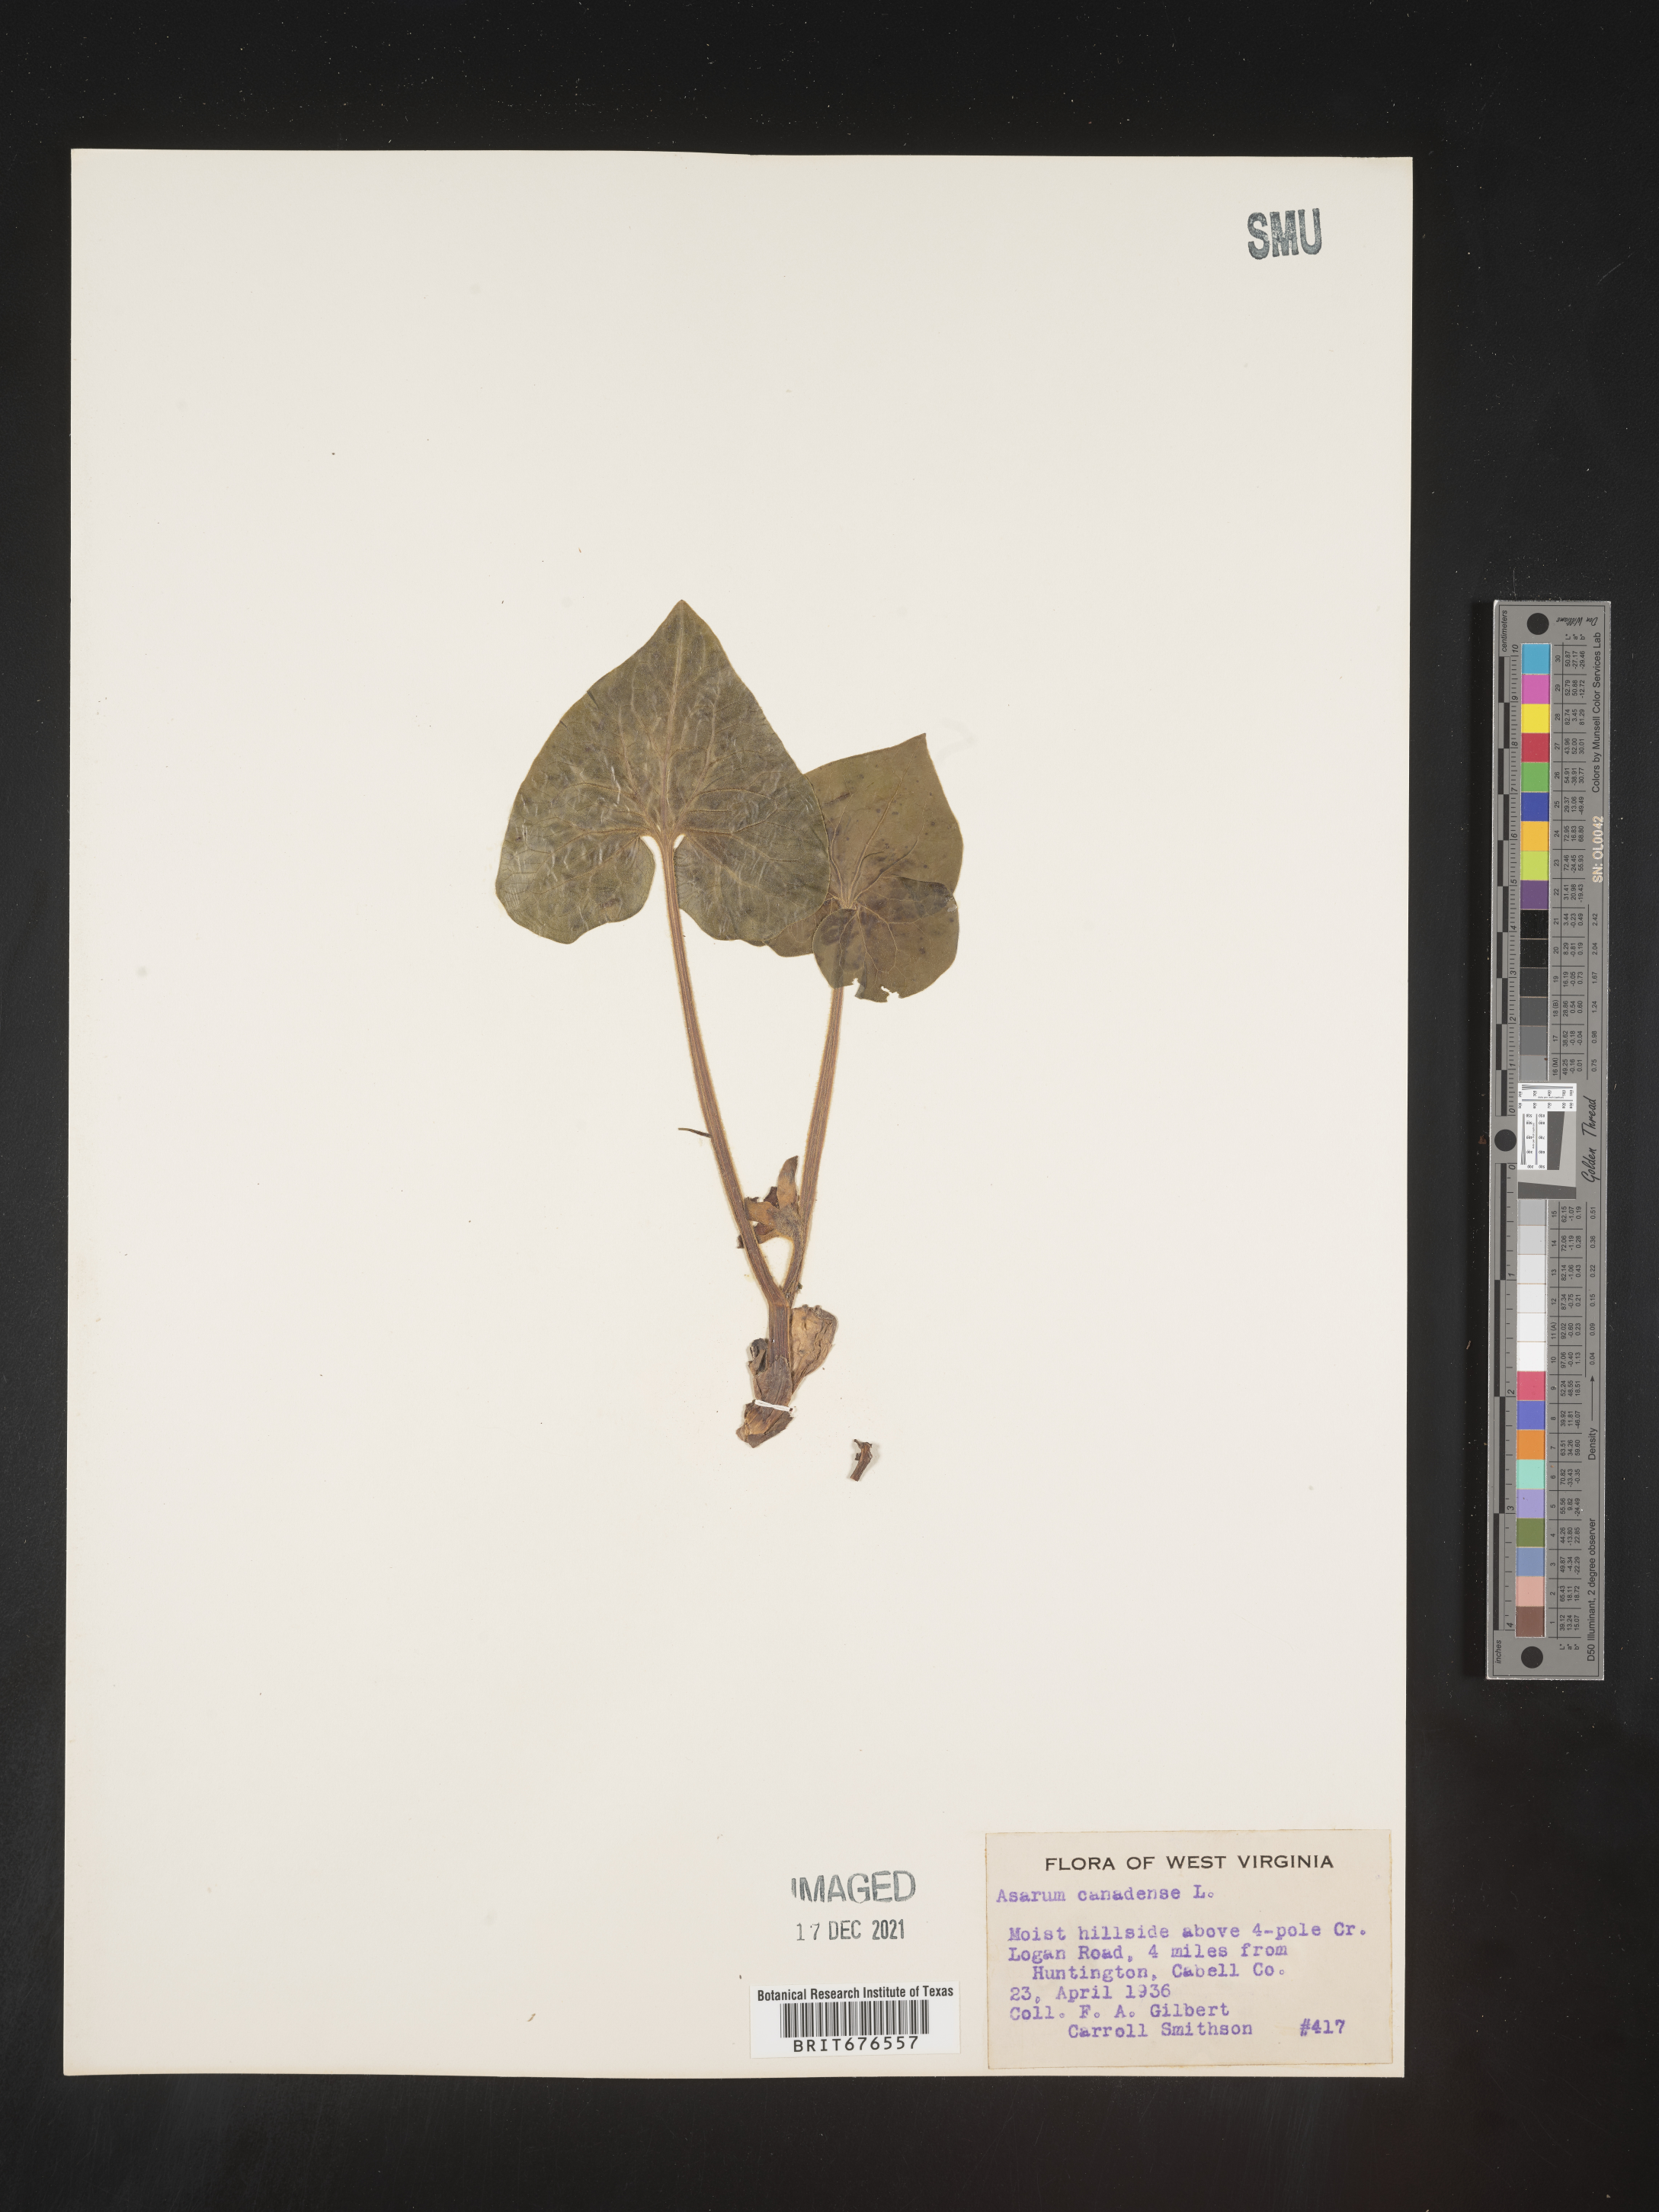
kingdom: Plantae
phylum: Tracheophyta
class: Magnoliopsida
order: Piperales
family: Aristolochiaceae
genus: Asarum
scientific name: Asarum canadense
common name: Wild ginger
